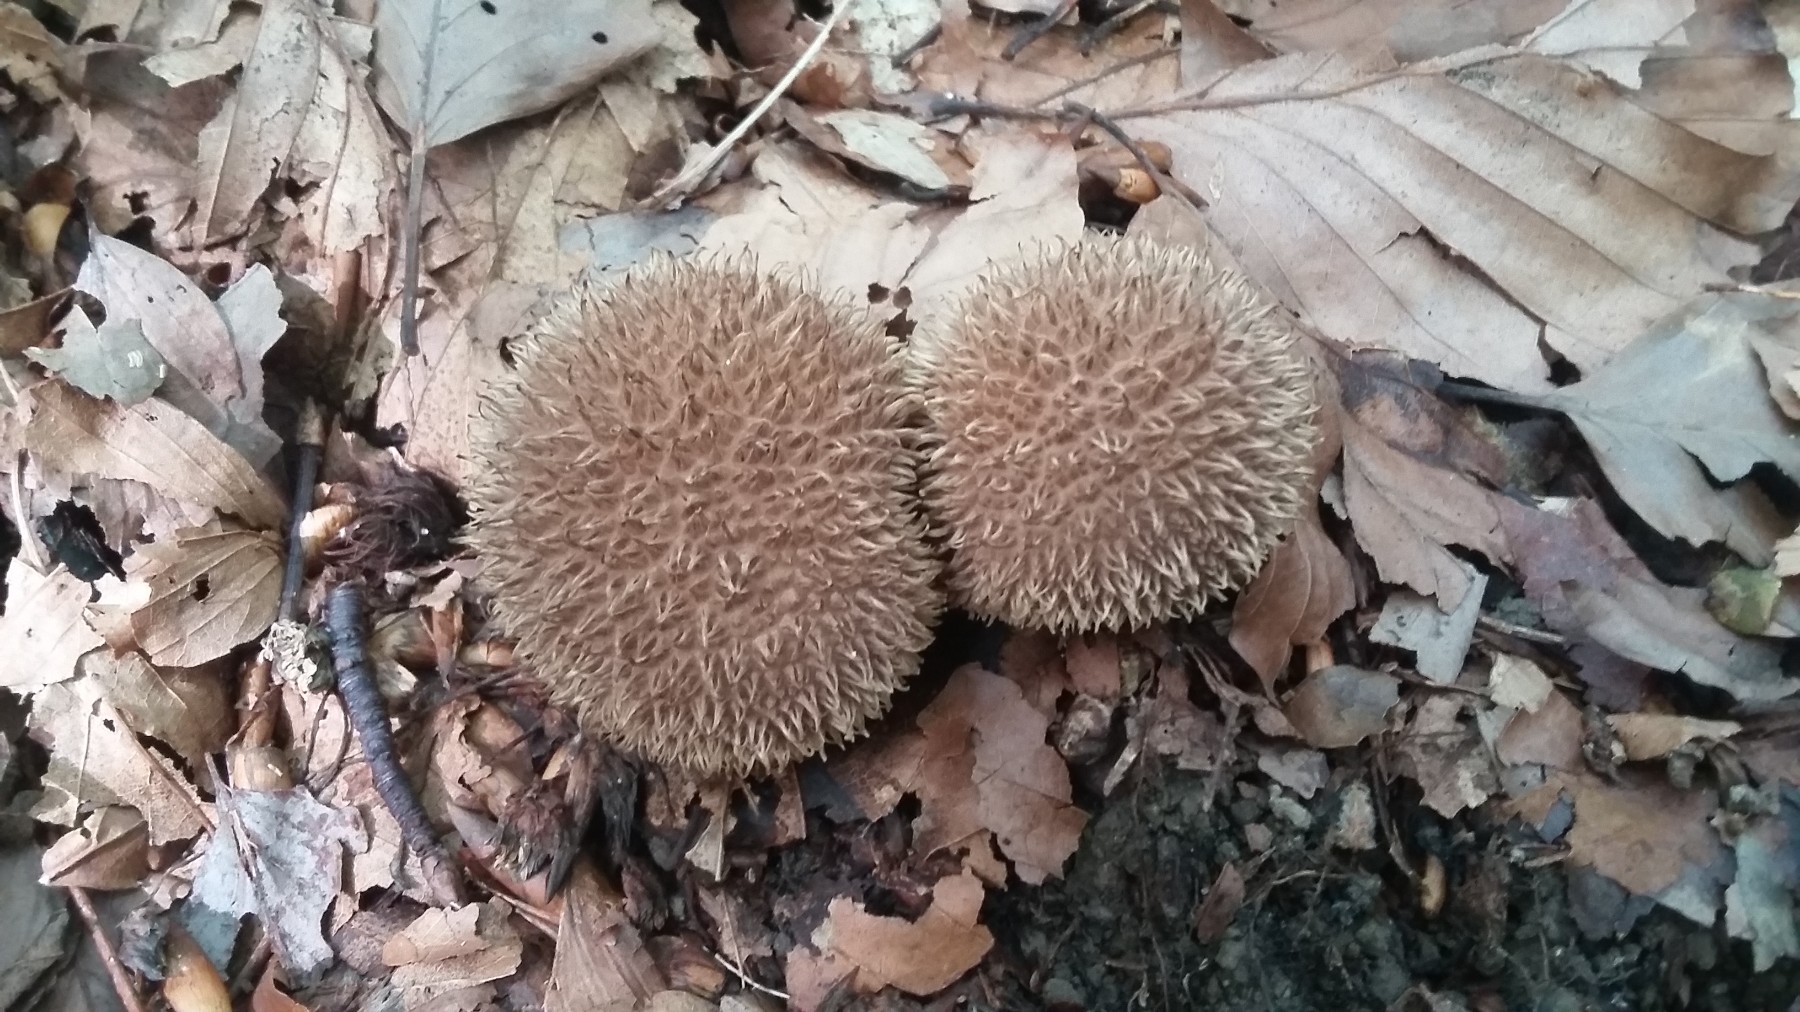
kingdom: Fungi
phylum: Basidiomycota
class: Agaricomycetes
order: Agaricales
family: Lycoperdaceae
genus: Lycoperdon
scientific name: Lycoperdon echinatum
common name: pindsvine-støvbold
